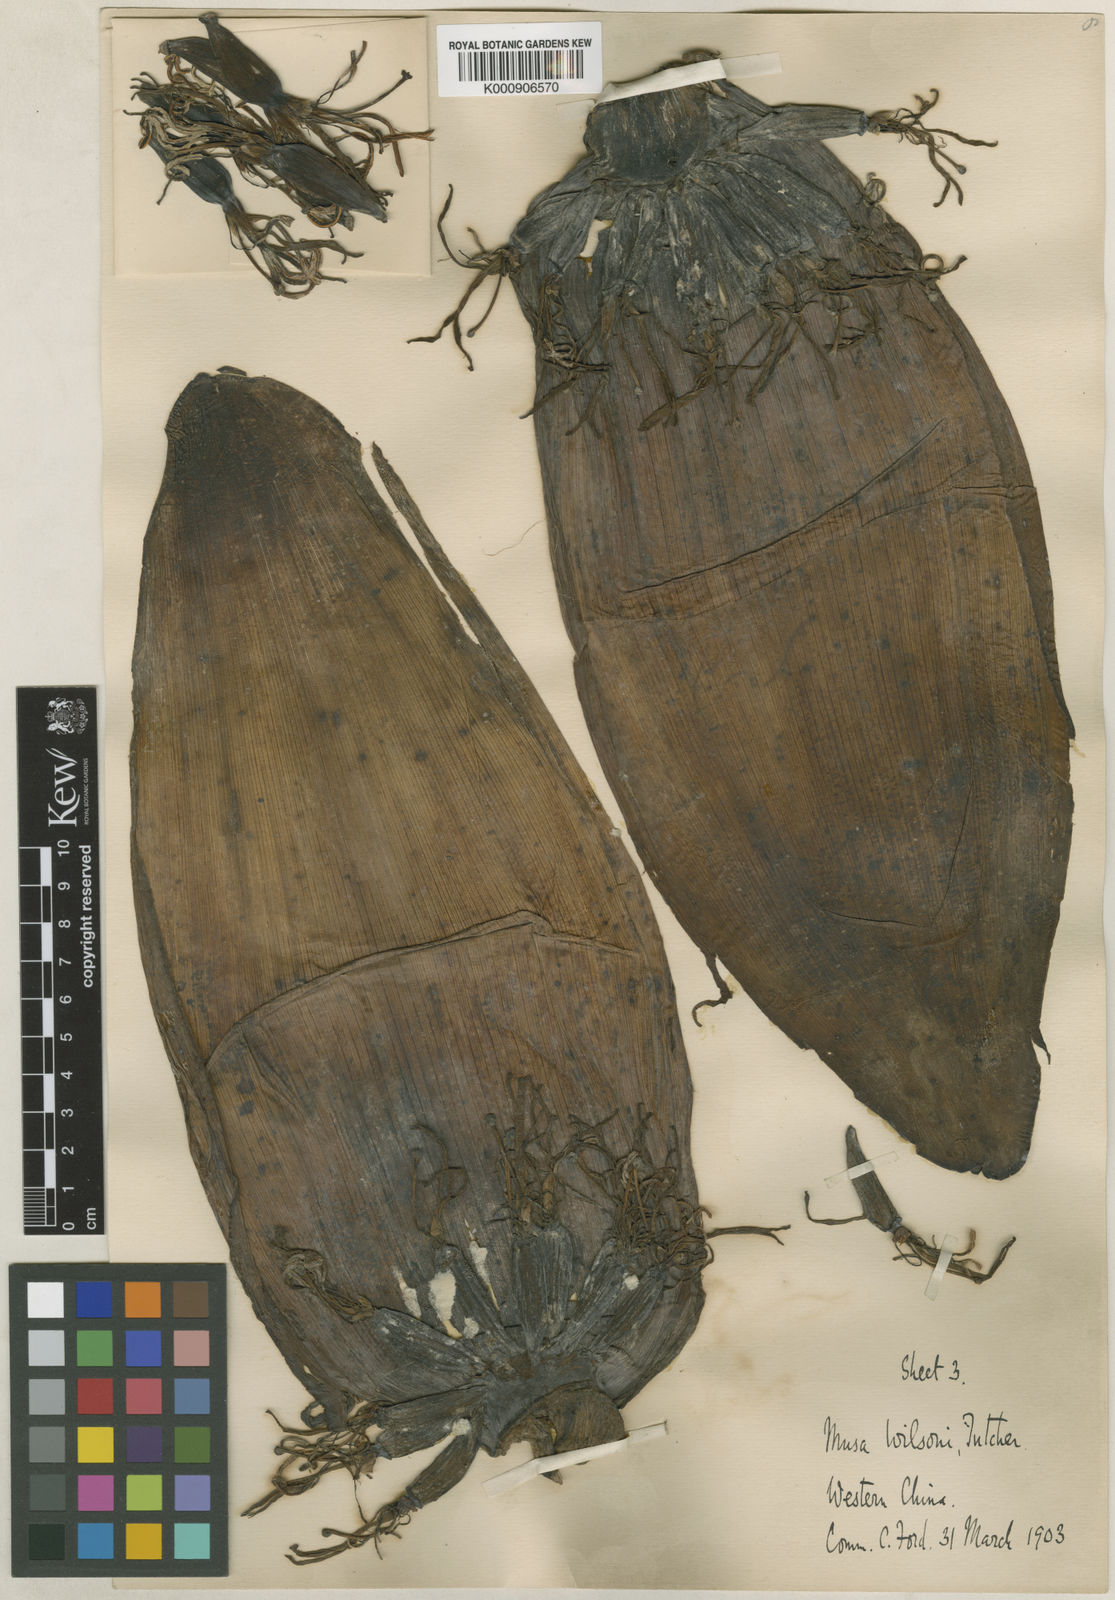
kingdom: Plantae
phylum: Tracheophyta
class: Liliopsida
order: Zingiberales
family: Musaceae
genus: Ensete
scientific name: Ensete glaucum
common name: Snow banana
